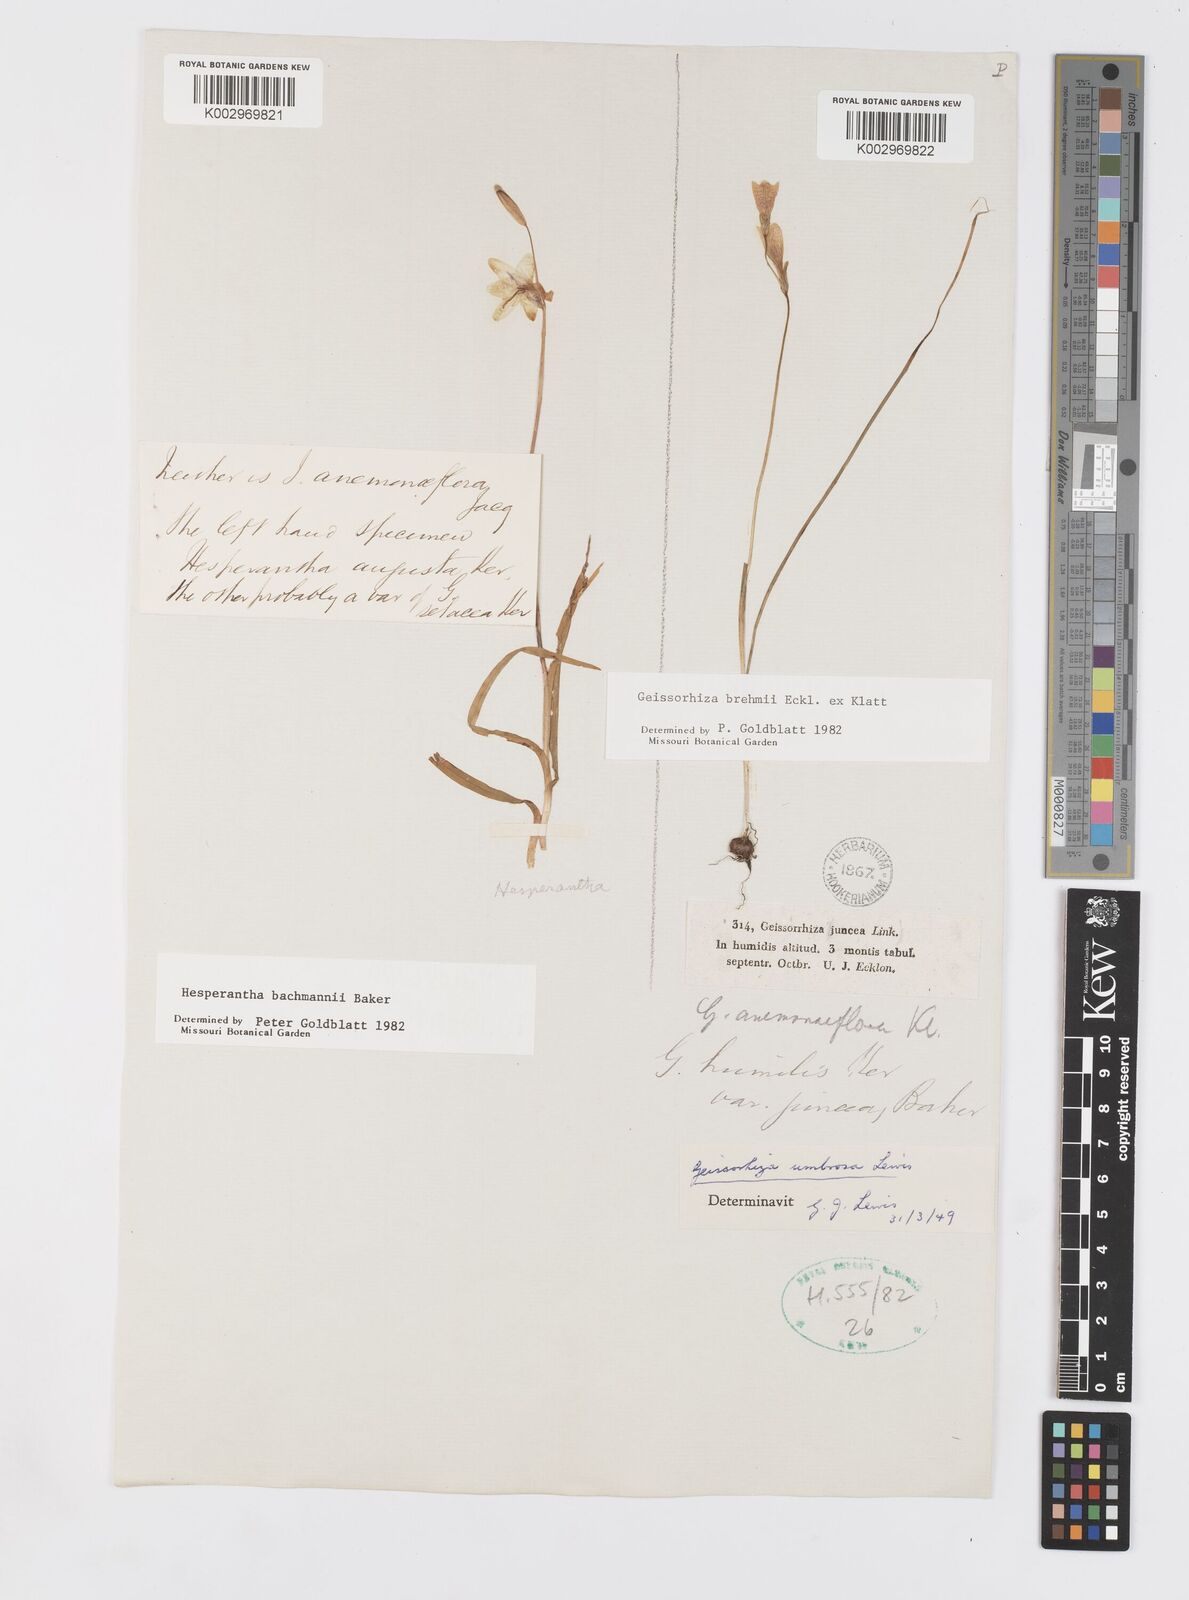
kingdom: Plantae
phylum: Tracheophyta
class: Liliopsida
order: Asparagales
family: Iridaceae
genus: Hesperantha
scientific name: Hesperantha bachmannii
